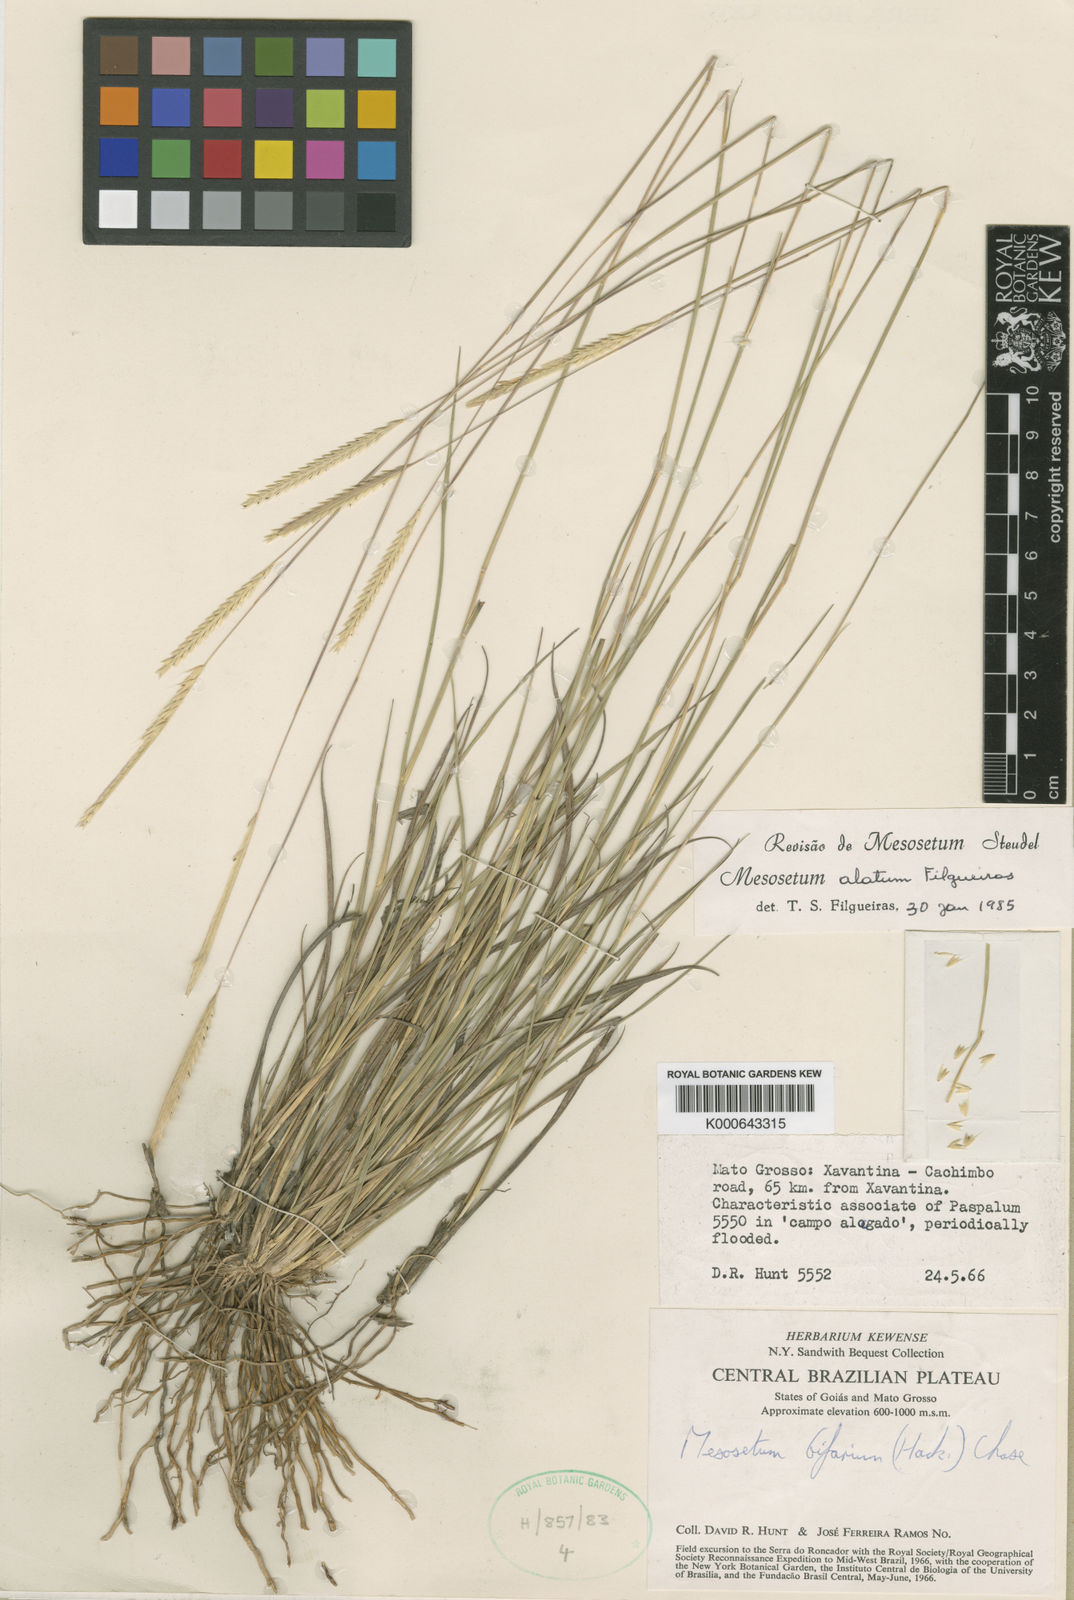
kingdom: Plantae
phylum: Tracheophyta
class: Liliopsida
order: Poales
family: Poaceae
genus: Mesosetum
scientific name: Mesosetum alatum
